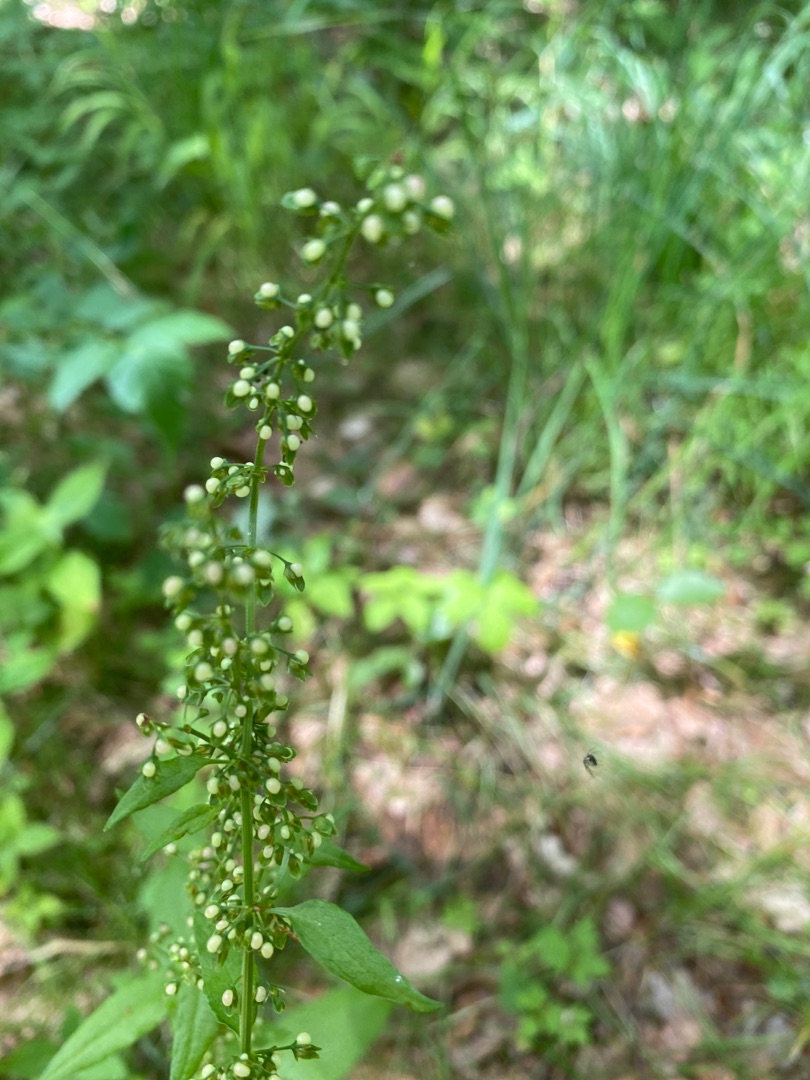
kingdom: Plantae
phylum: Tracheophyta
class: Magnoliopsida
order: Caryophyllales
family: Polygonaceae
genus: Rumex
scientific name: Rumex sanguineus
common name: Skov-skræppe
